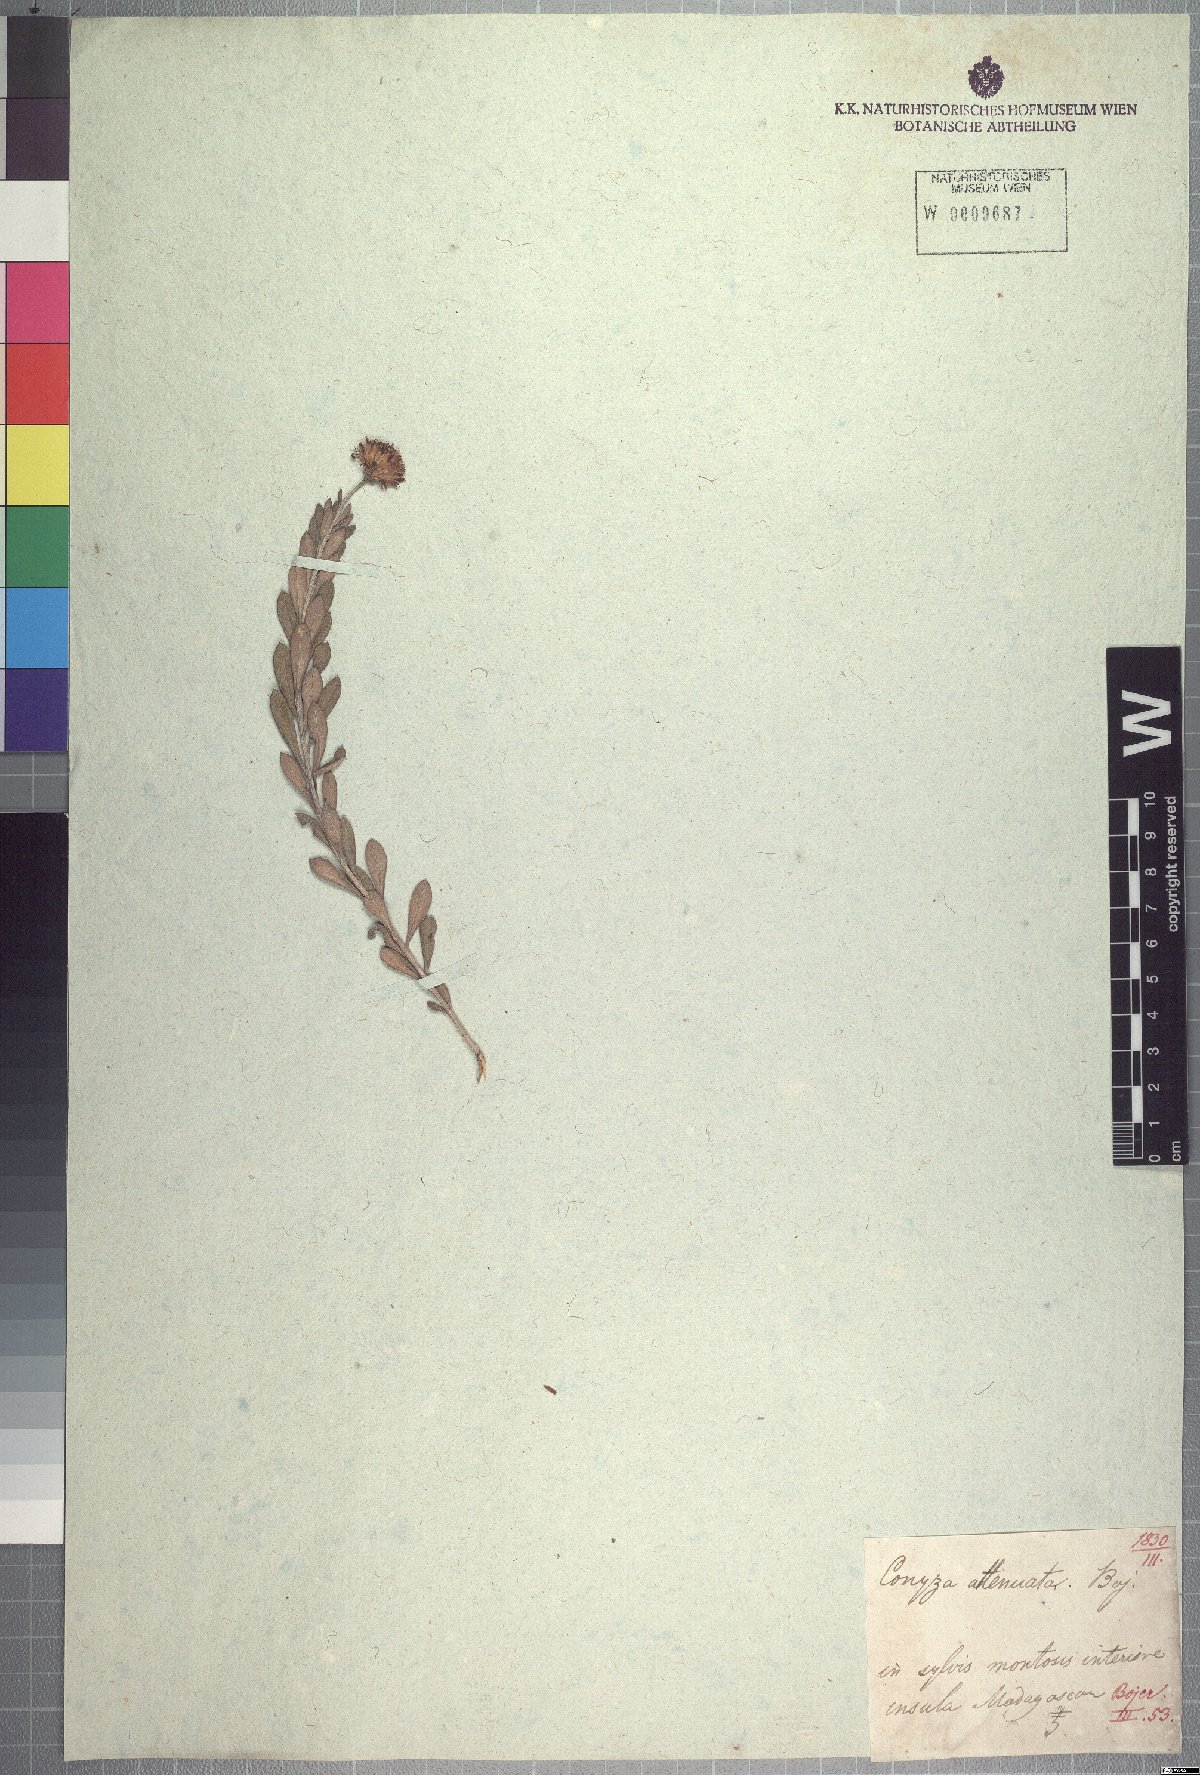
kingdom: Plantae
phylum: Tracheophyta
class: Magnoliopsida
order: Asterales
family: Asteraceae
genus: Nidorella
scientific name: Nidorella attenuata
